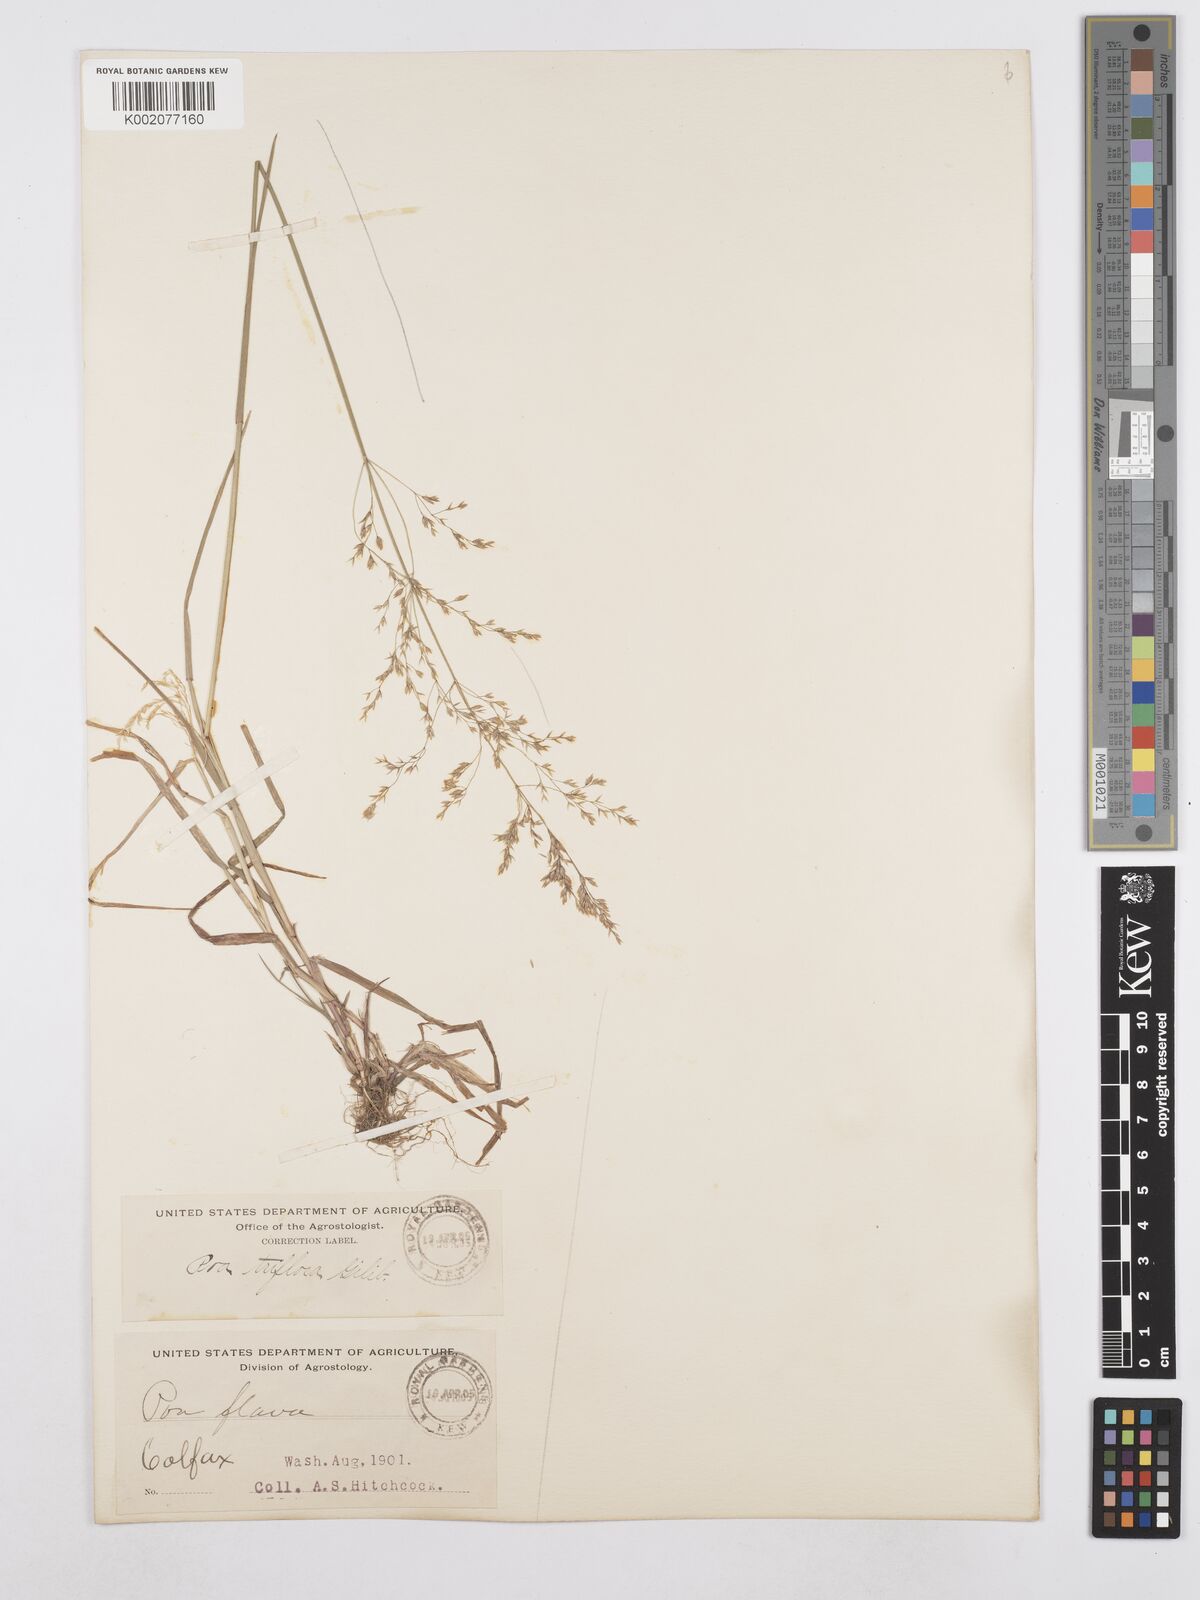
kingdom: Plantae
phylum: Tracheophyta
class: Liliopsida
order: Poales
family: Poaceae
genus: Poa
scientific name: Poa palustris
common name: Swamp meadow-grass
